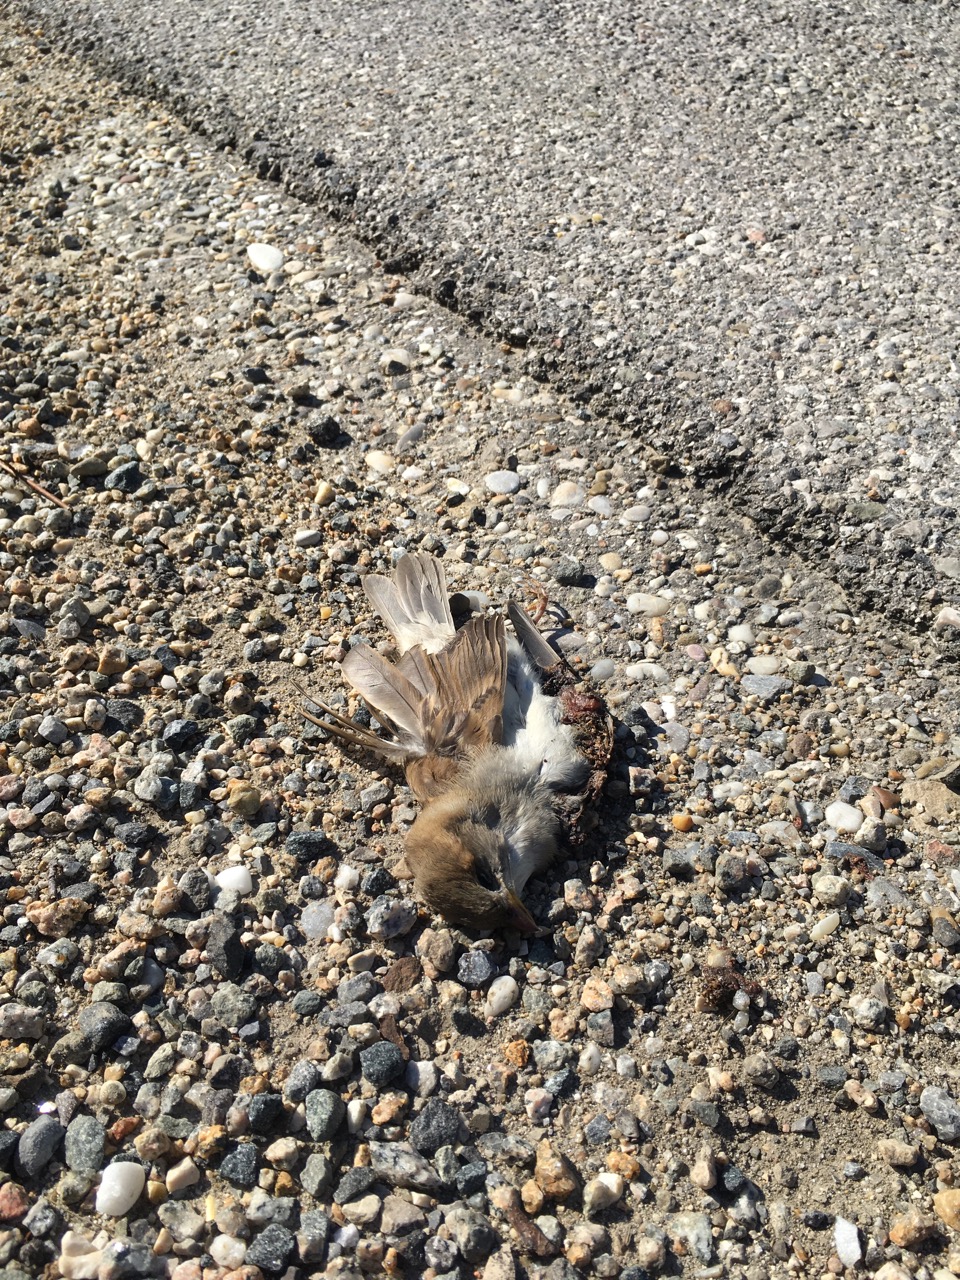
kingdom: Animalia
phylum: Chordata
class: Aves
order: Passeriformes
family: Passeridae
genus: Passer
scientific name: Passer domesticus
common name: House sparrow
